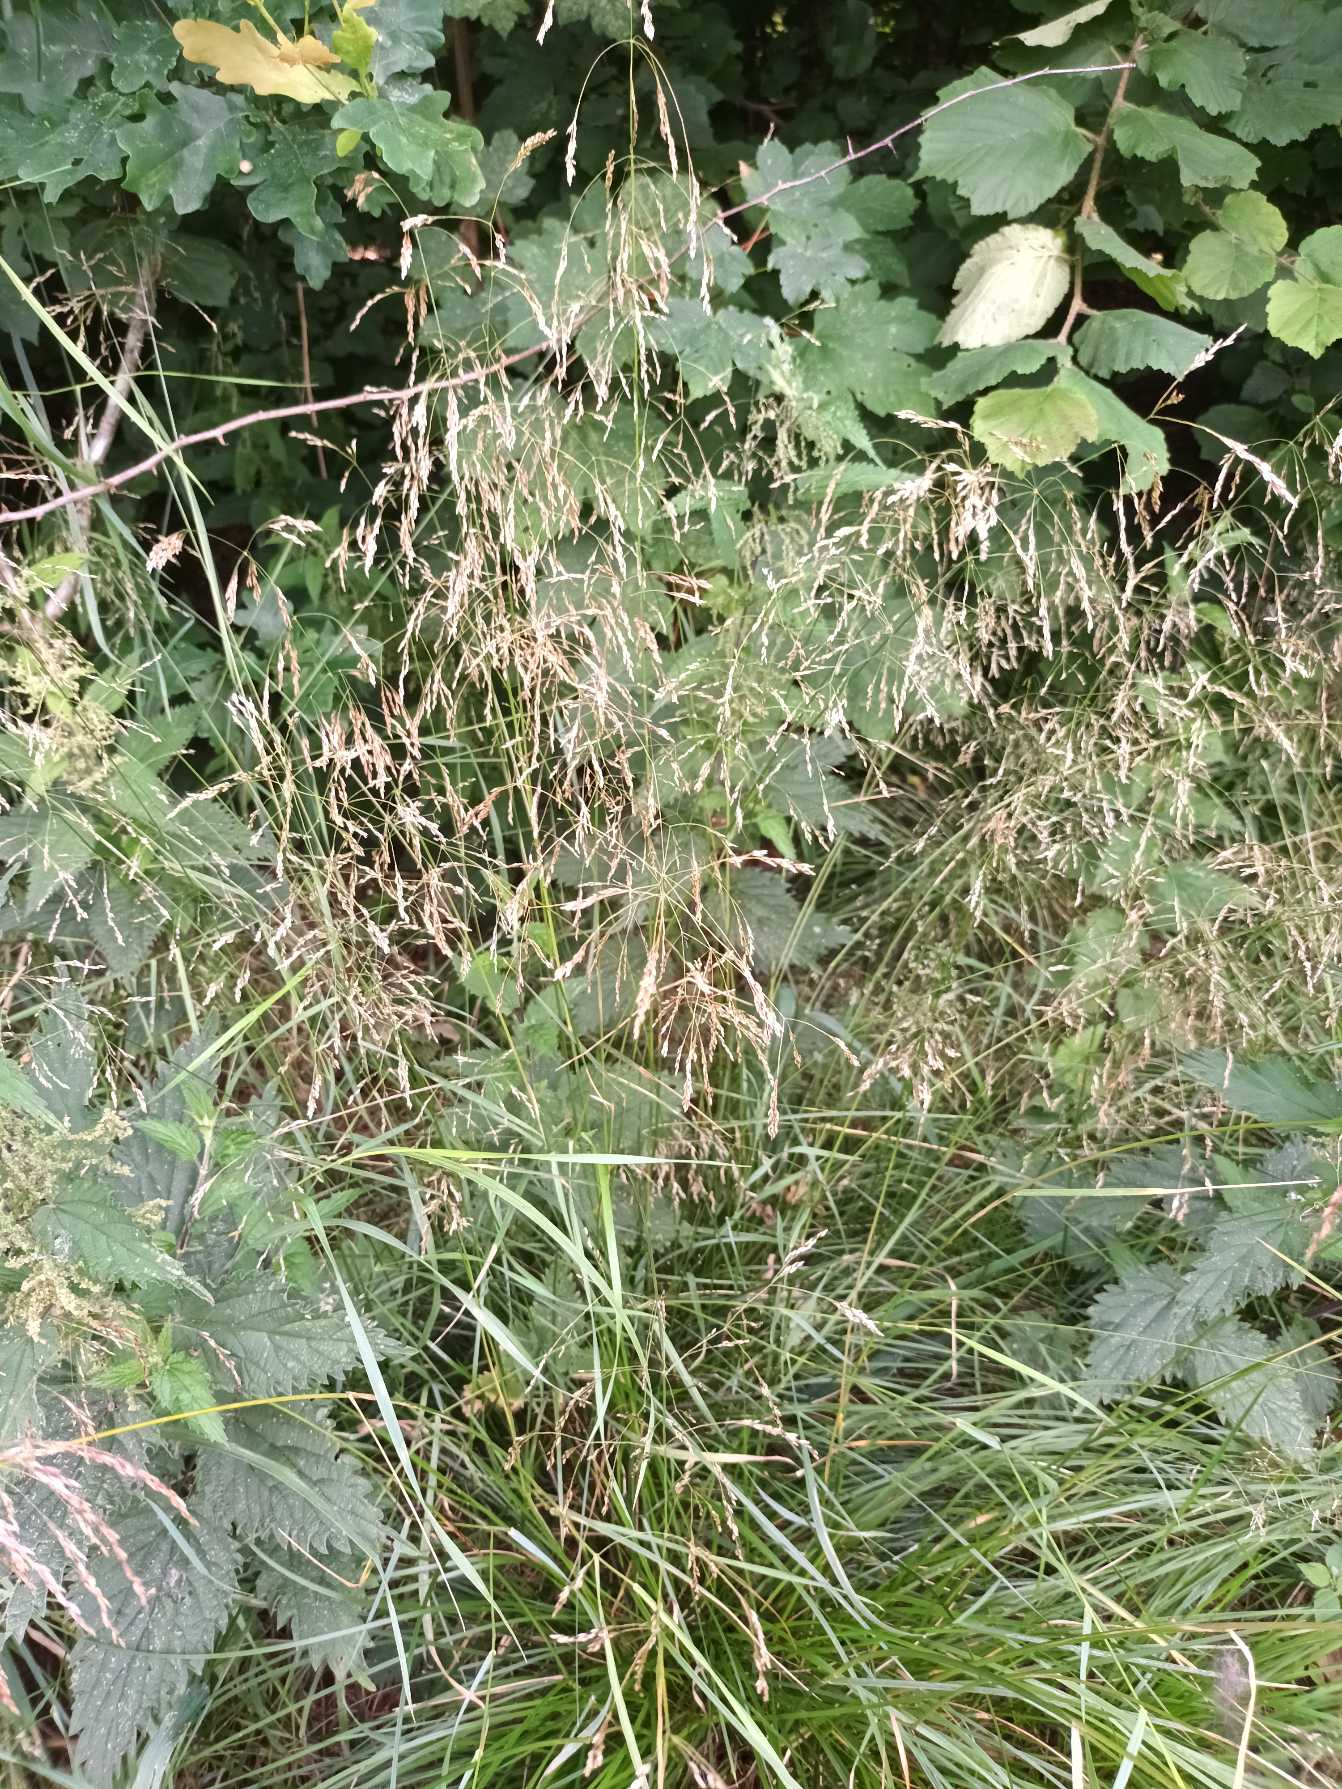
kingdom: Plantae
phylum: Tracheophyta
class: Liliopsida
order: Poales
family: Poaceae
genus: Deschampsia
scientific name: Deschampsia cespitosa
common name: Mose-bunke
